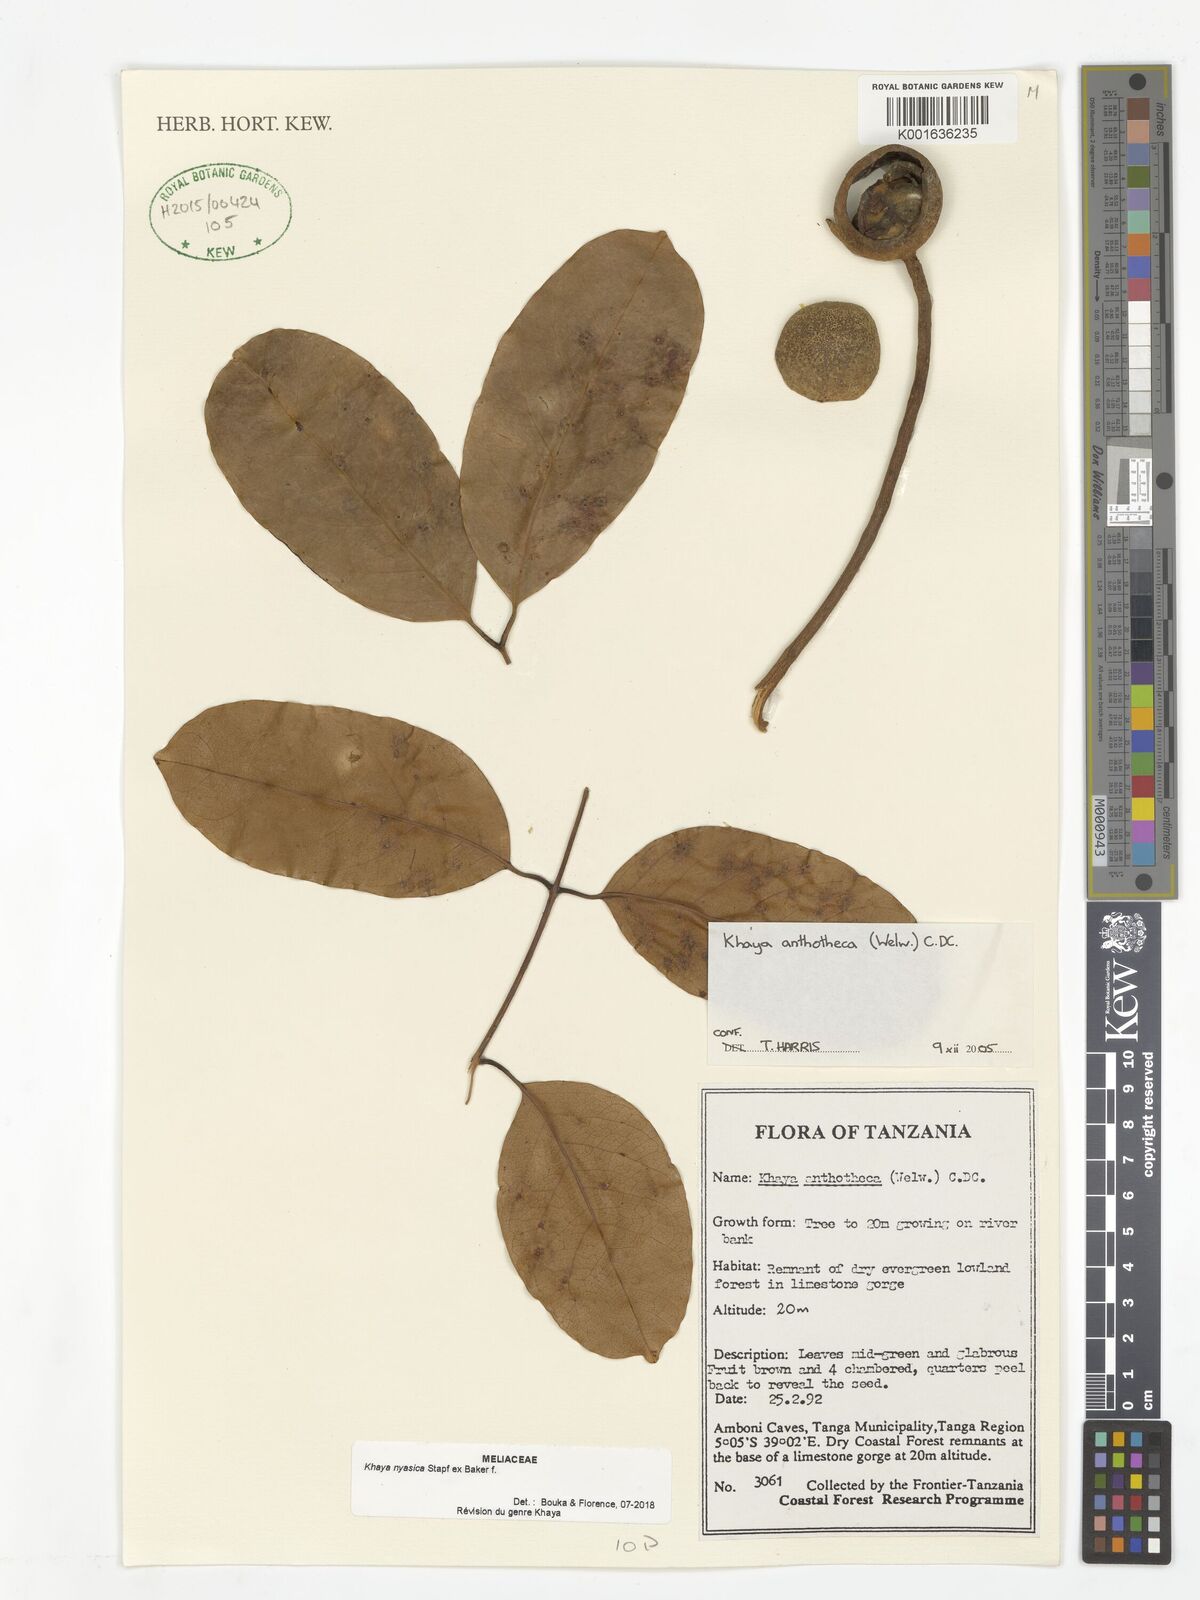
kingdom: Plantae
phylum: Tracheophyta
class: Magnoliopsida
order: Sapindales
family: Meliaceae
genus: Khaya
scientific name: Khaya nyasica
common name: Nyasaland mahogany
